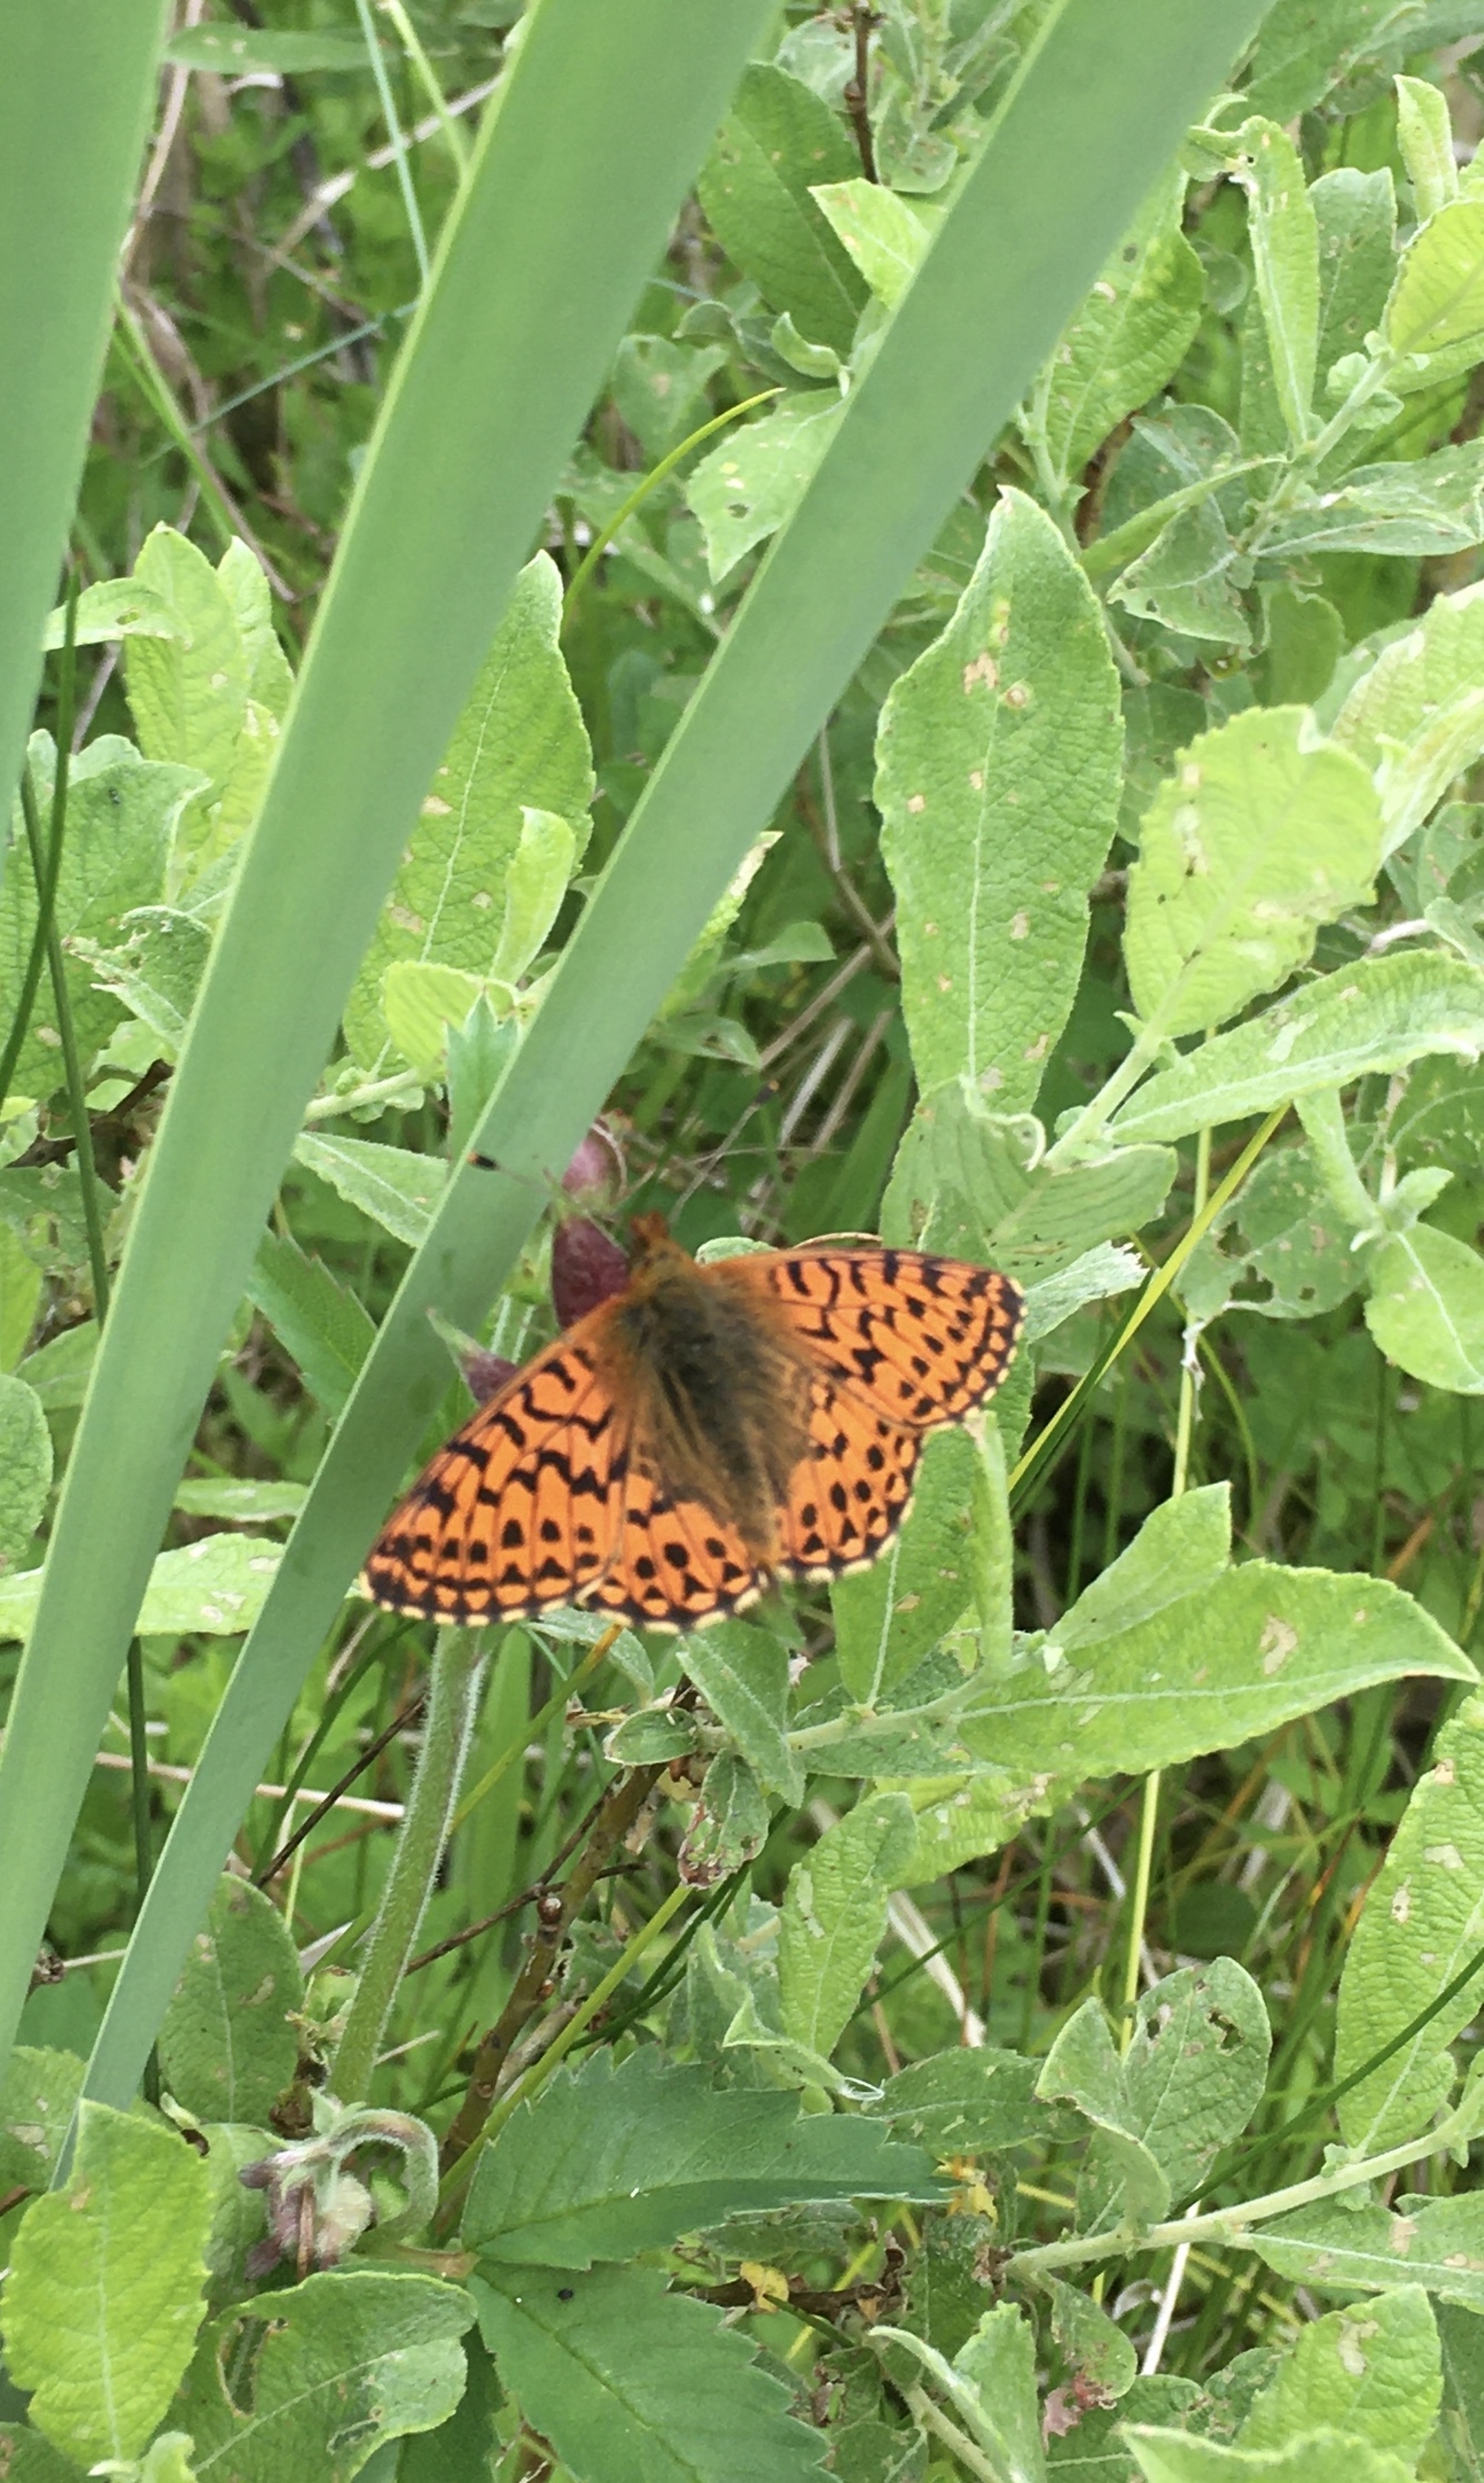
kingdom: Animalia
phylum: Arthropoda
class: Insecta
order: Lepidoptera
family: Nymphalidae
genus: Boloria
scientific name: Boloria aquilonaris
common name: Moseperlemorsommerfugl
